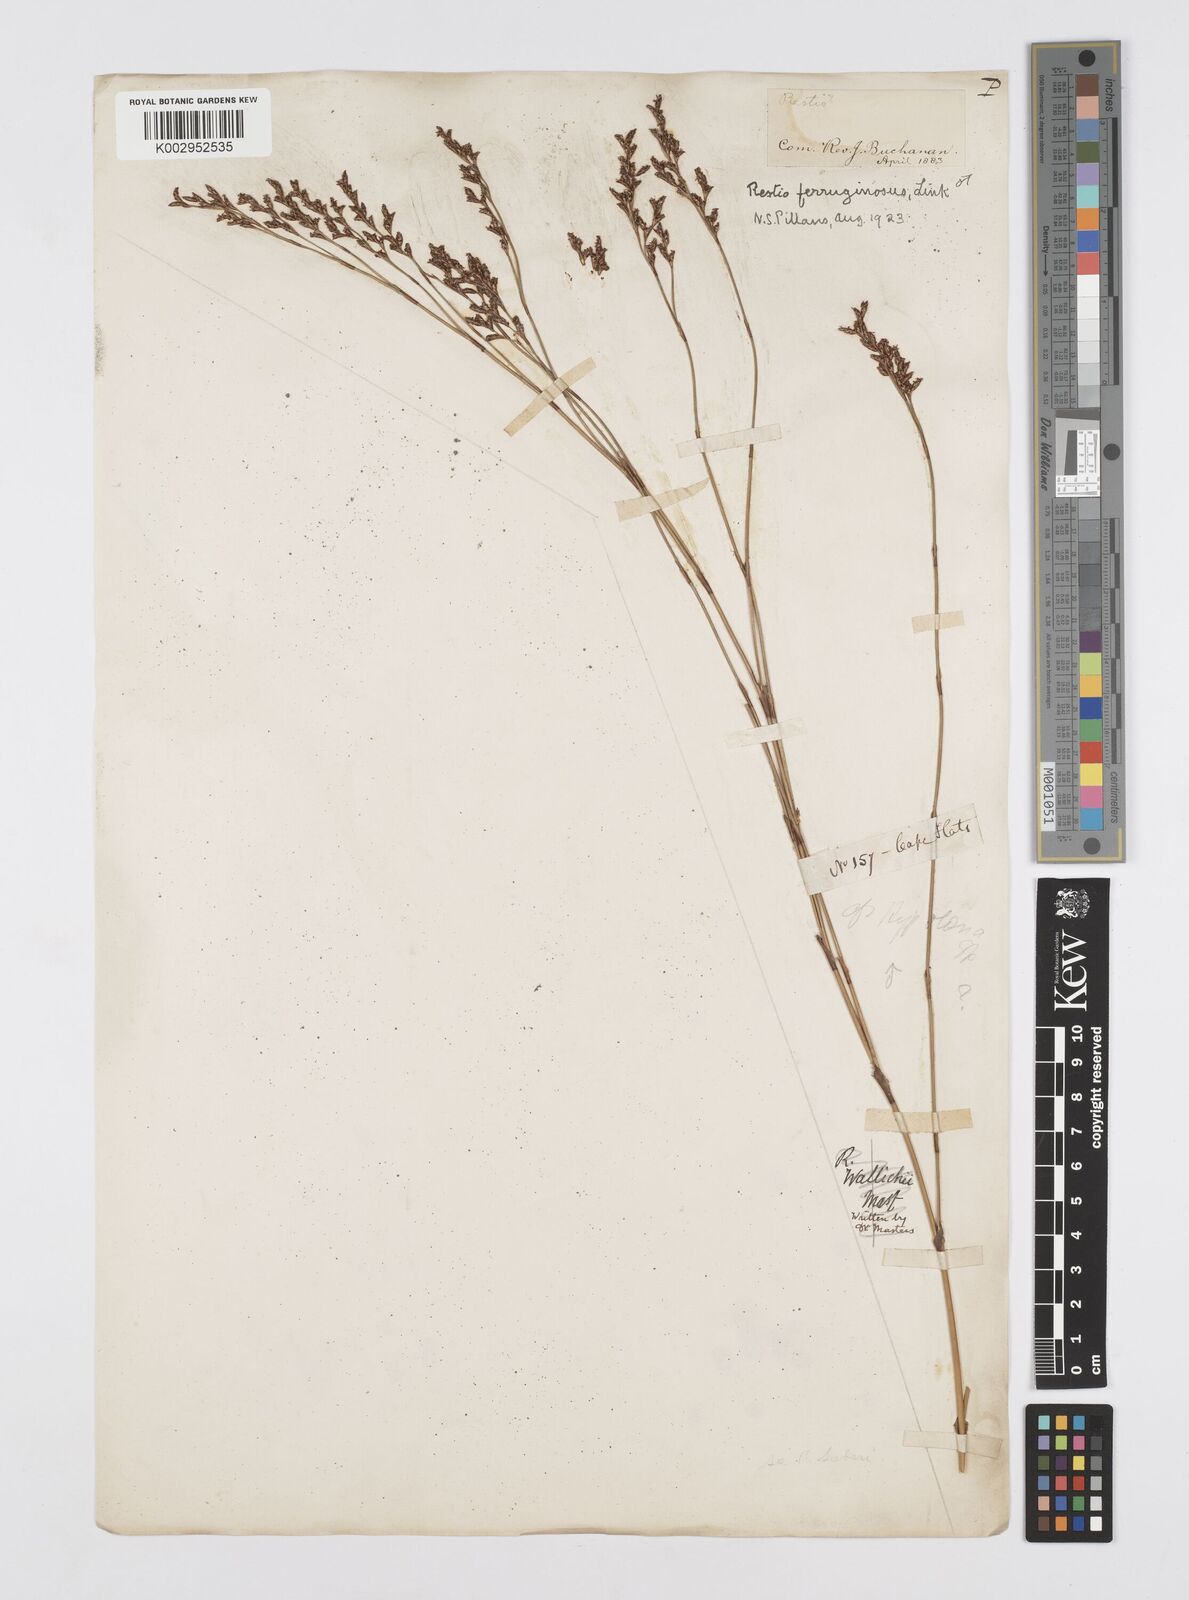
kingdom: Plantae
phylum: Tracheophyta
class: Liliopsida
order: Poales
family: Restionaceae
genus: Restio
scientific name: Restio gaudichaudianus
